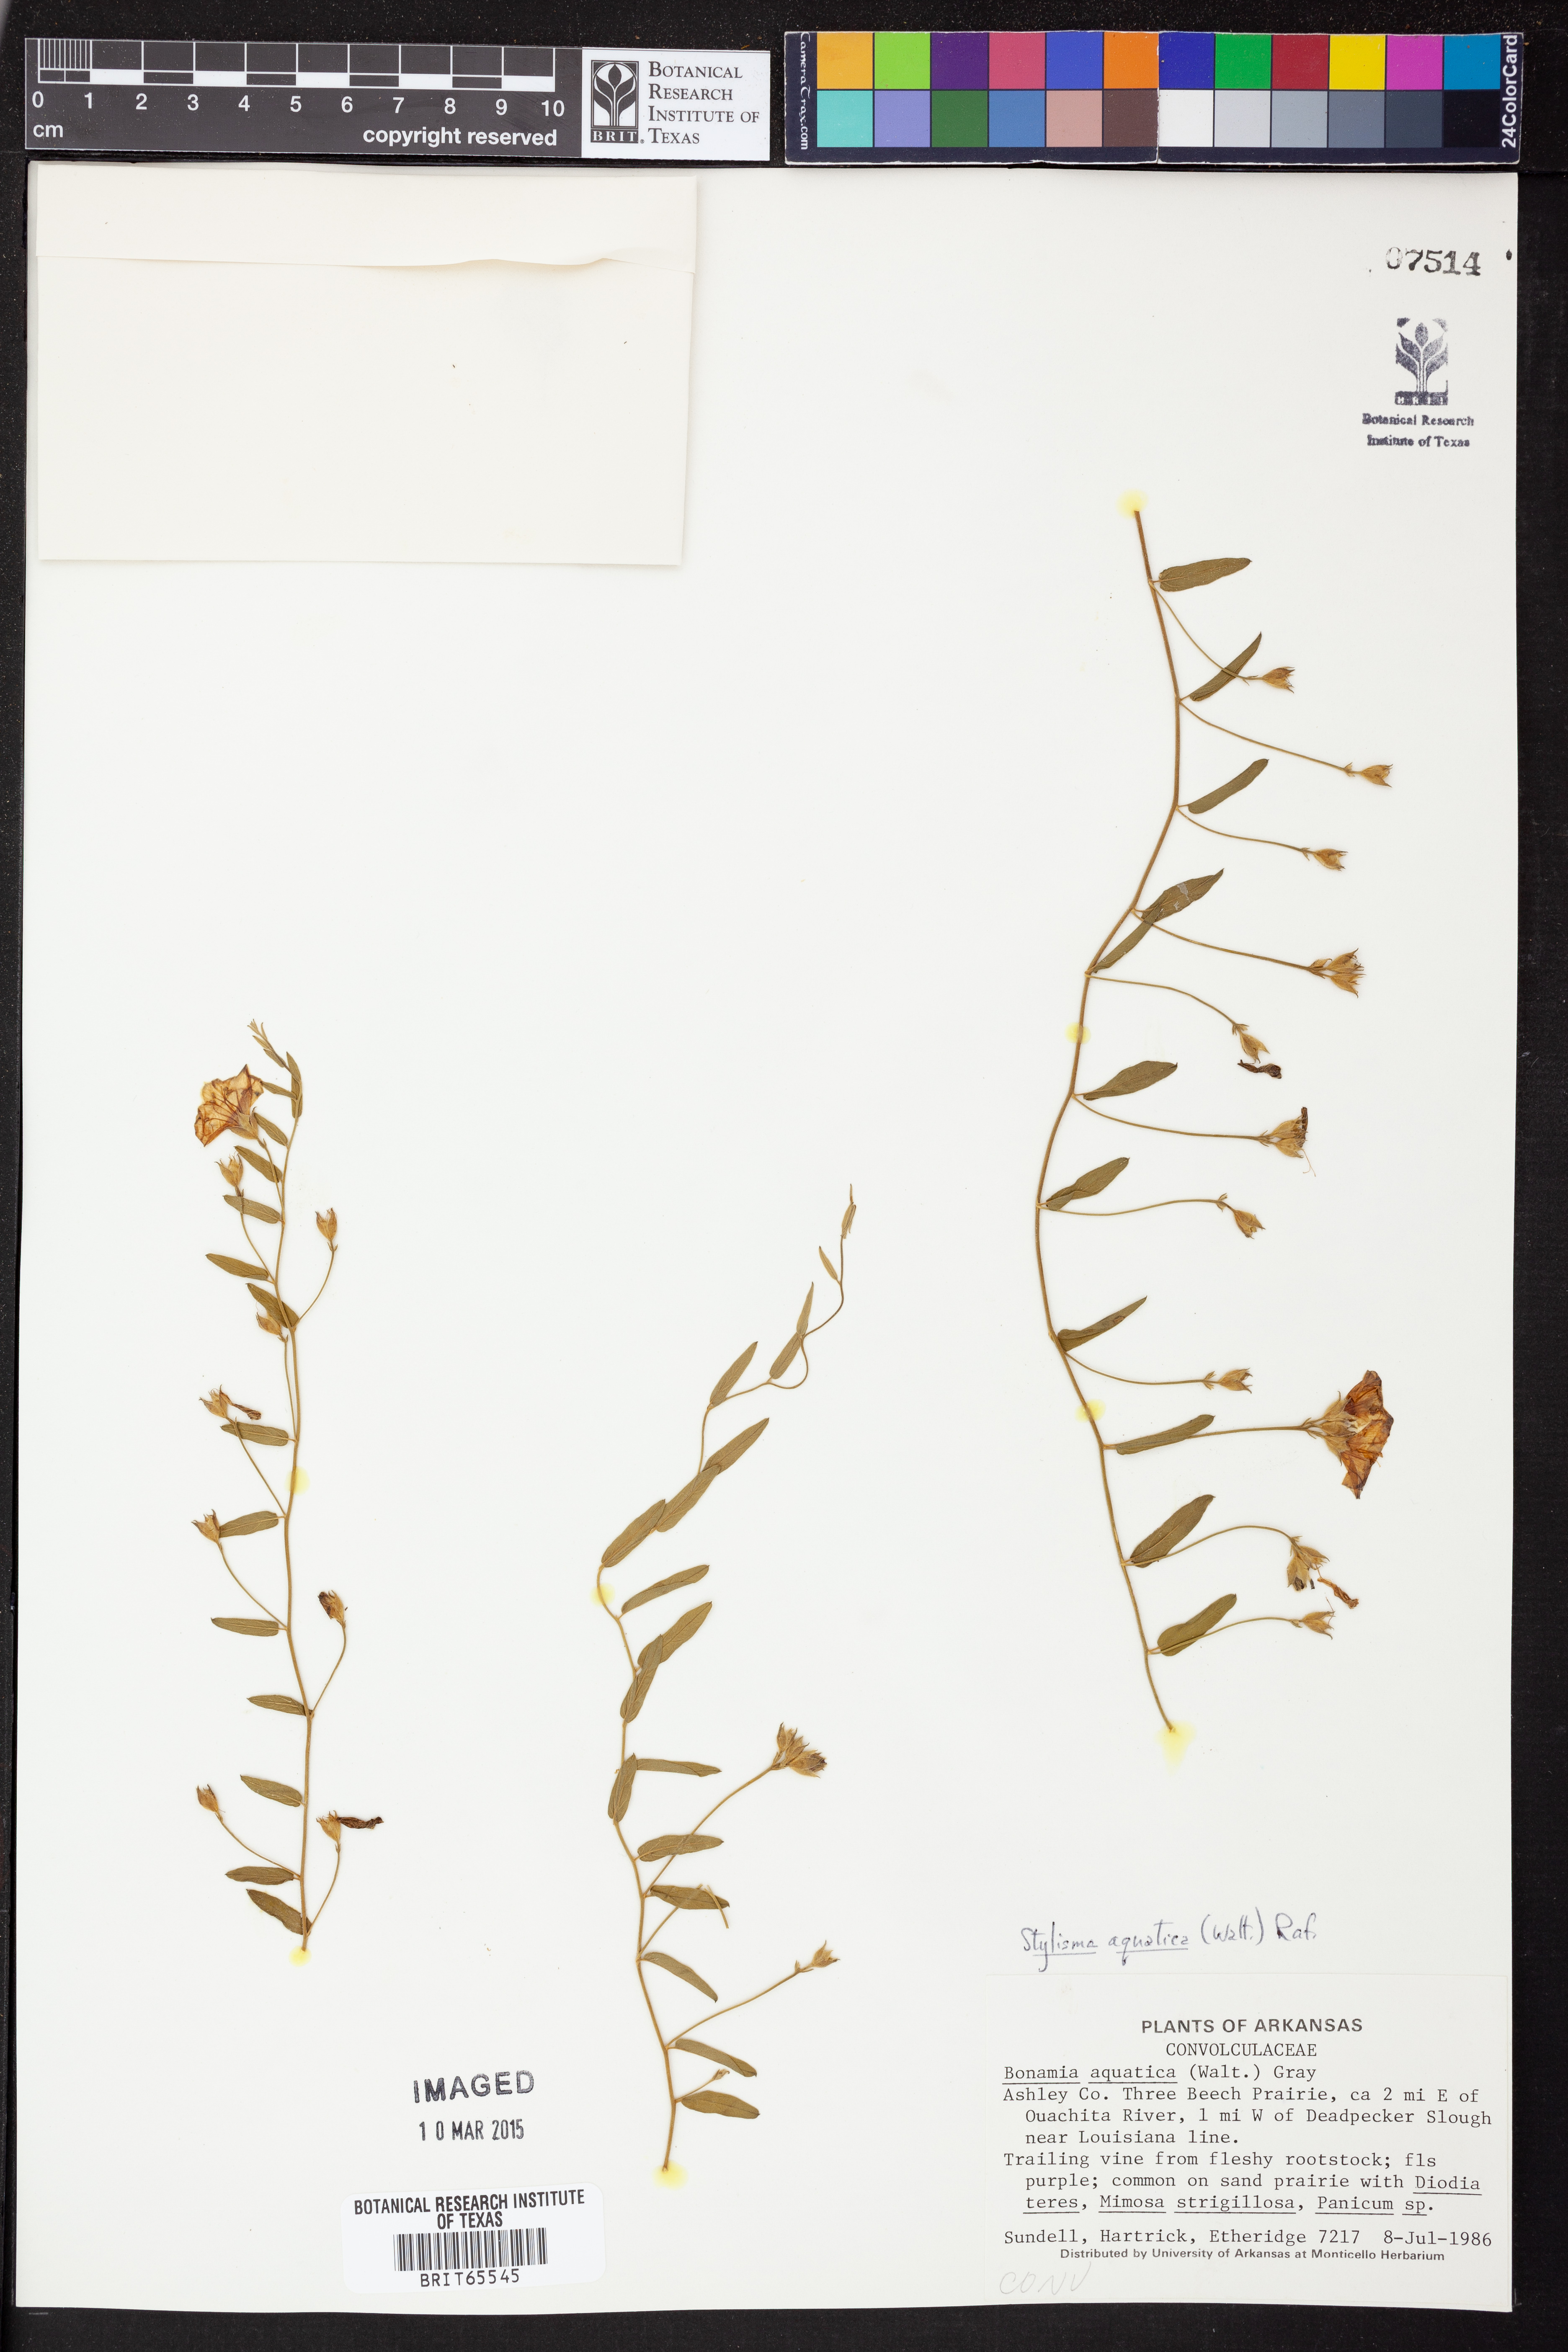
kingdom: Plantae
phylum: Tracheophyta
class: Magnoliopsida
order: Solanales
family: Convolvulaceae
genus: Stylisma
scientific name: Stylisma
